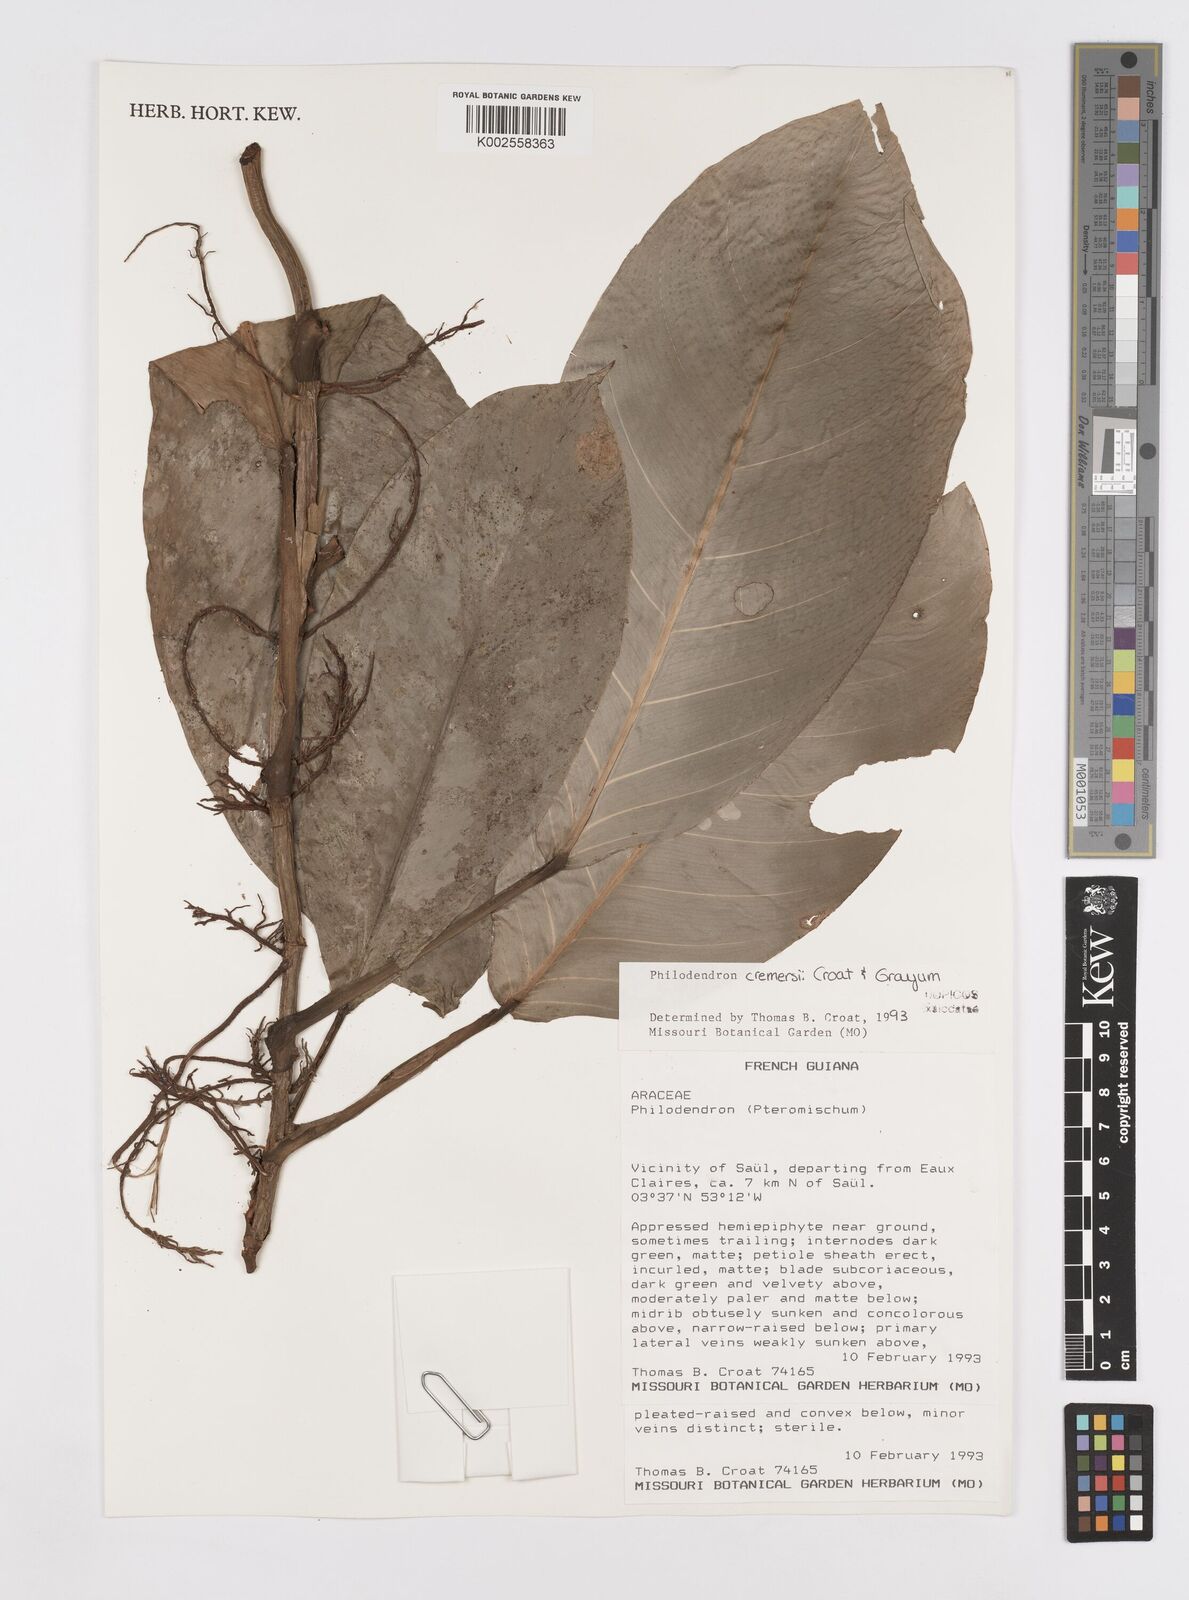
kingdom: Plantae
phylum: Tracheophyta
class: Liliopsida
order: Alismatales
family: Araceae
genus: Philodendron
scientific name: Philodendron cremersii
